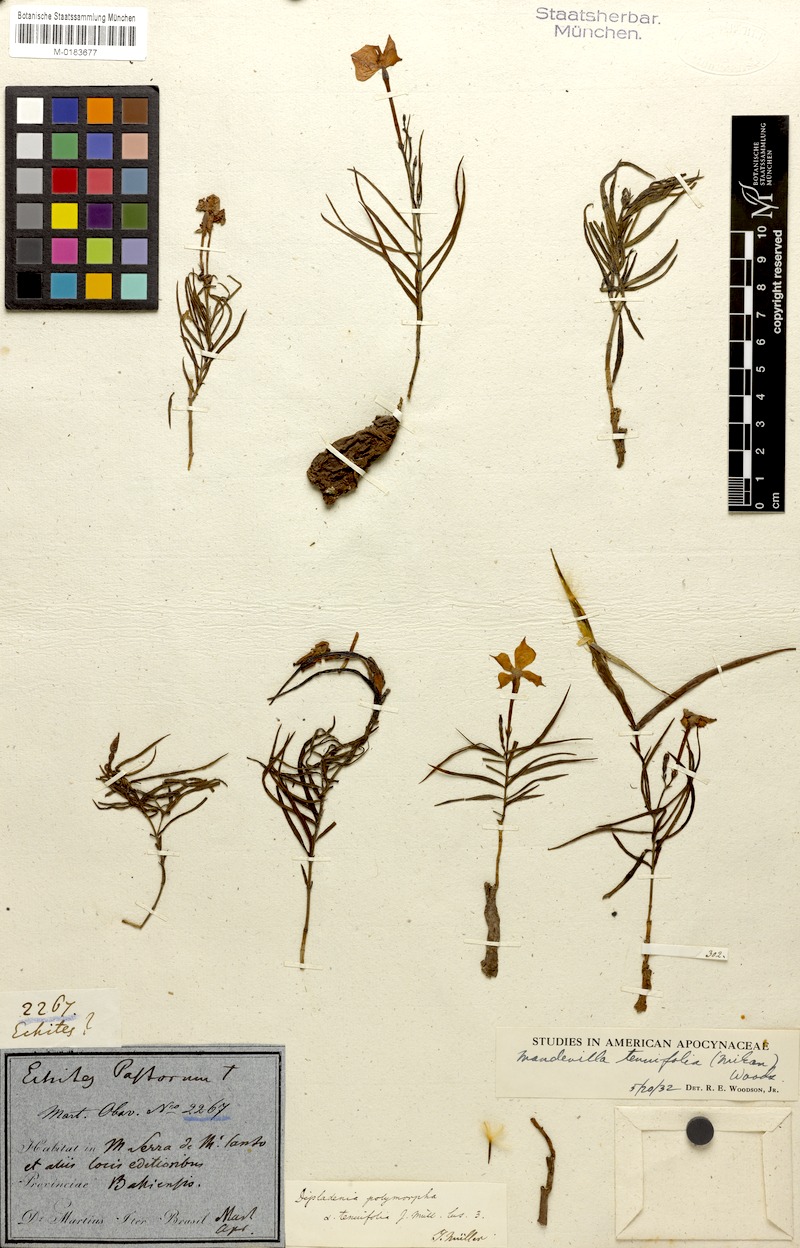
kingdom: Plantae
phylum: Tracheophyta
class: Magnoliopsida
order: Gentianales
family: Apocynaceae
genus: Mandevilla
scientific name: Mandevilla tenuifolia
